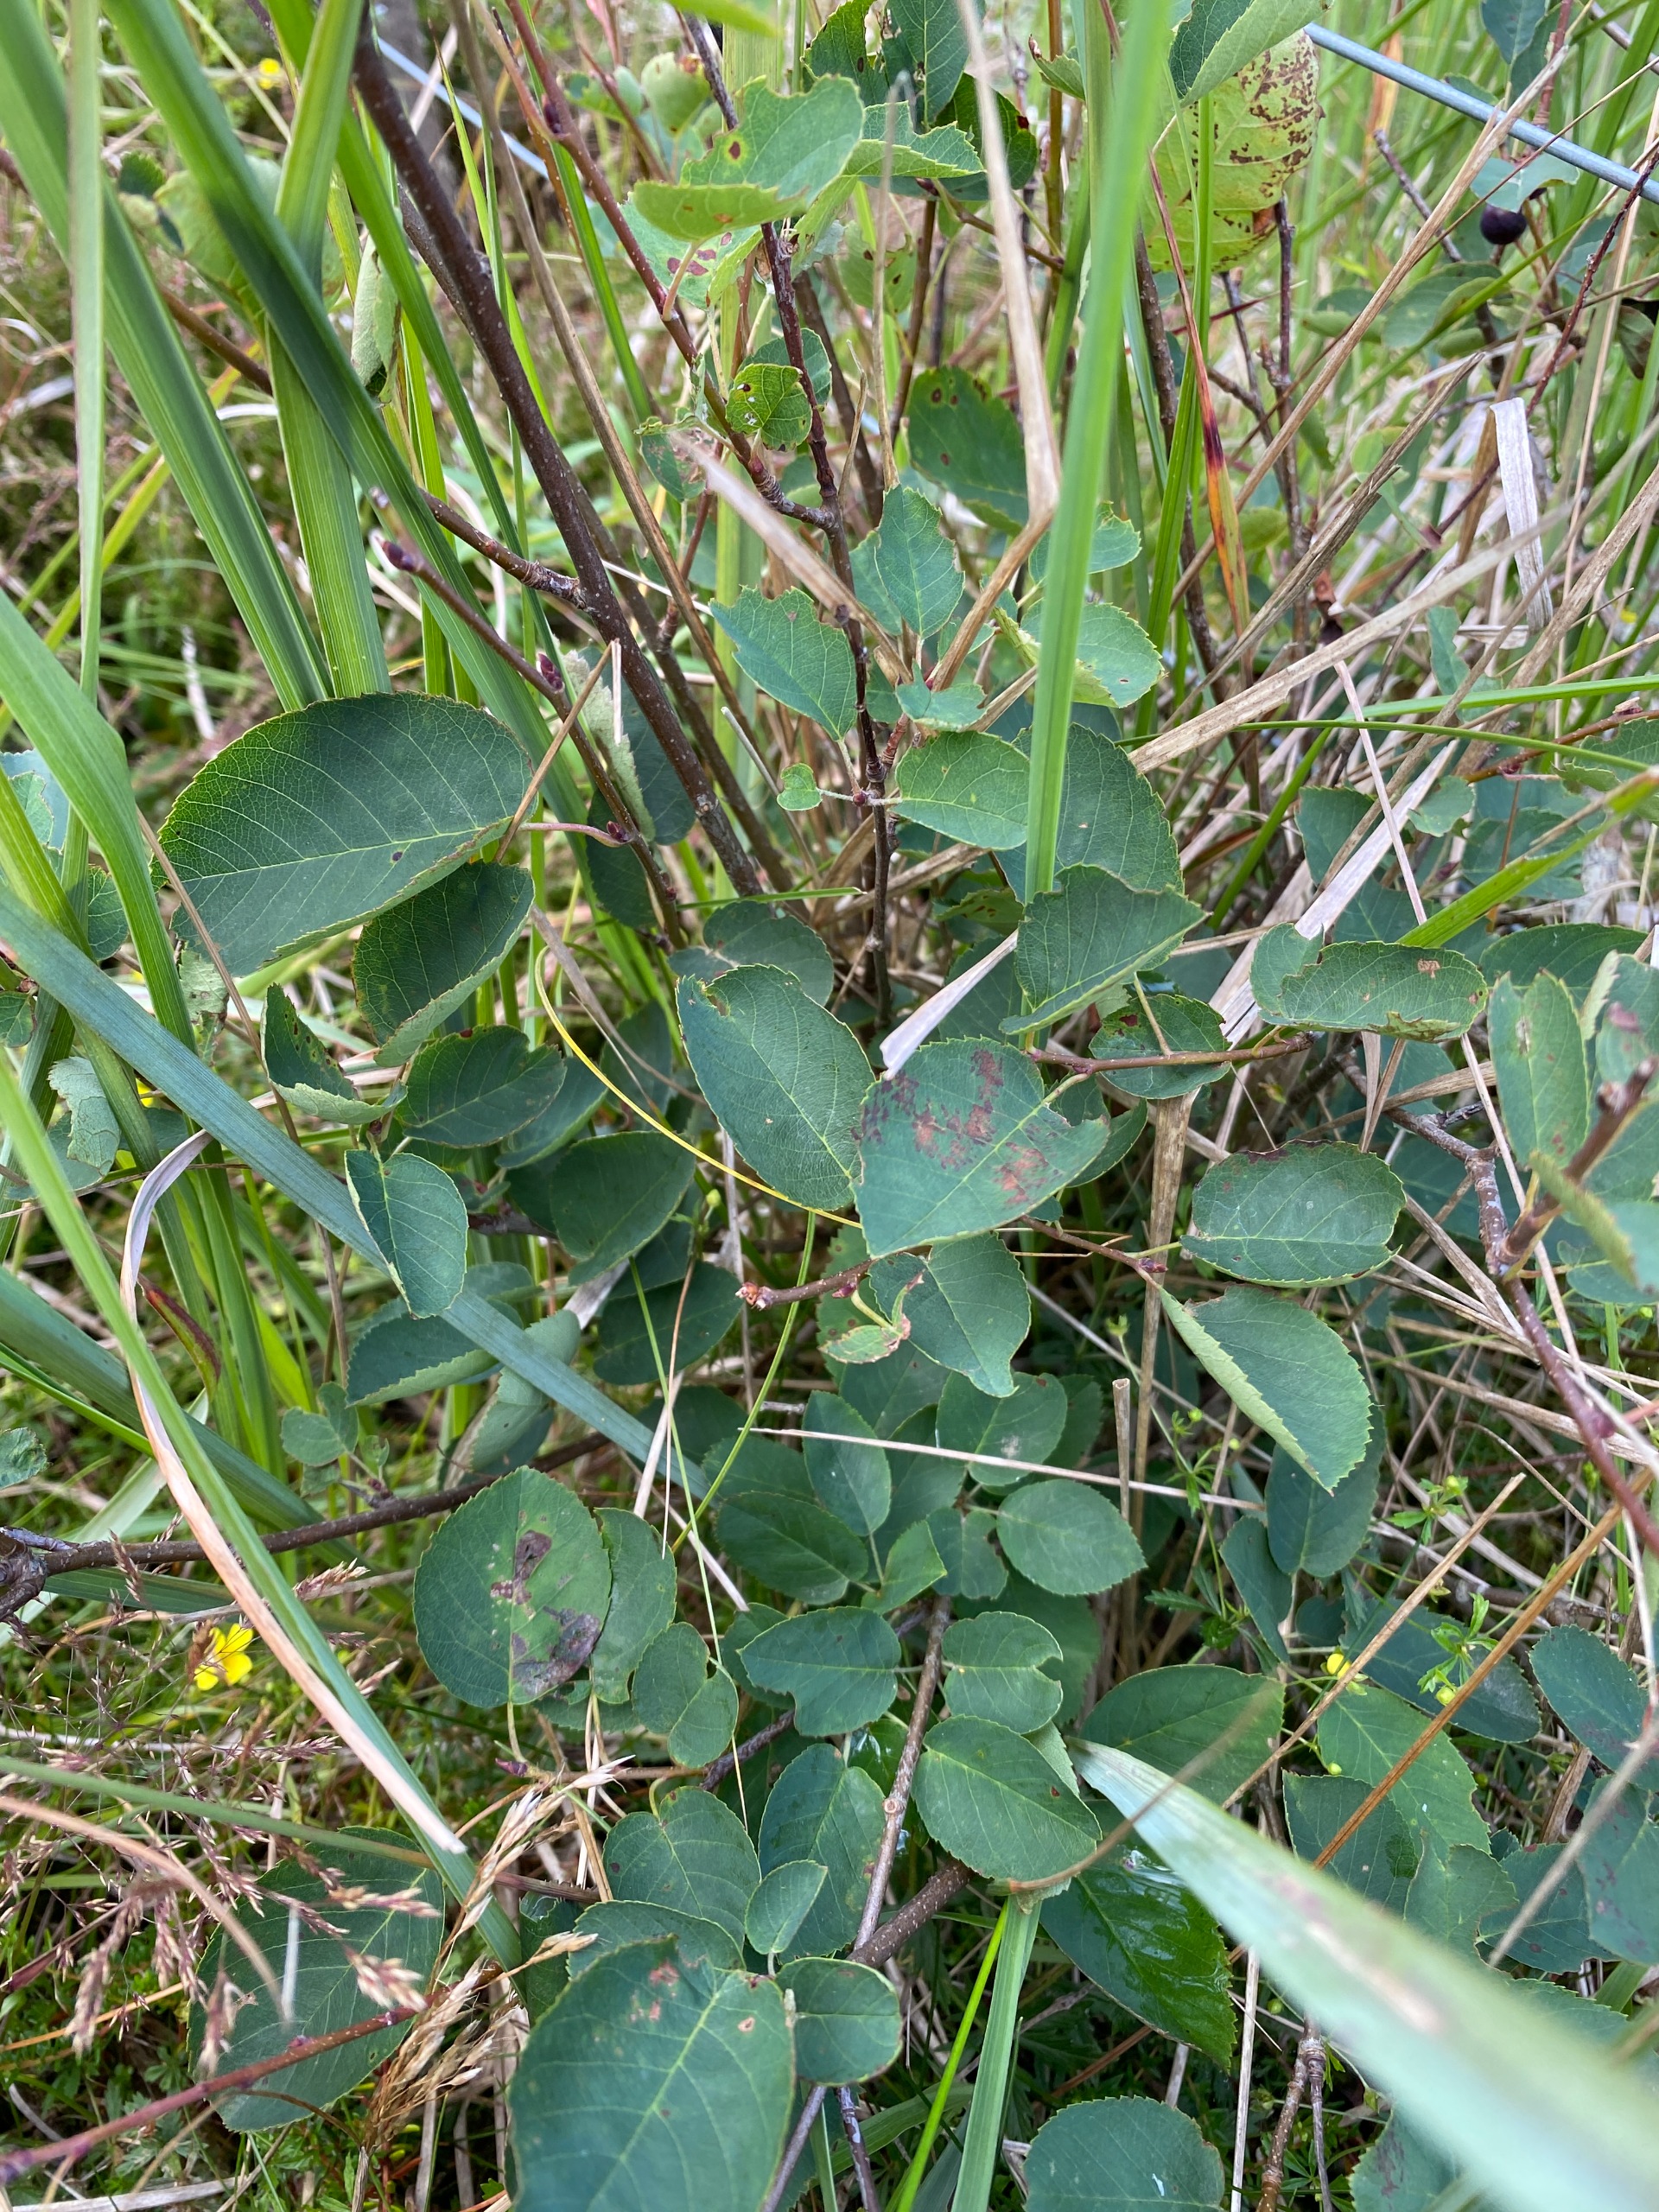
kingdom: Plantae
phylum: Tracheophyta
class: Magnoliopsida
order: Rosales
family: Rosaceae
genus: Amelanchier
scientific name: Amelanchier humilis
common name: Aks-bærmispel
